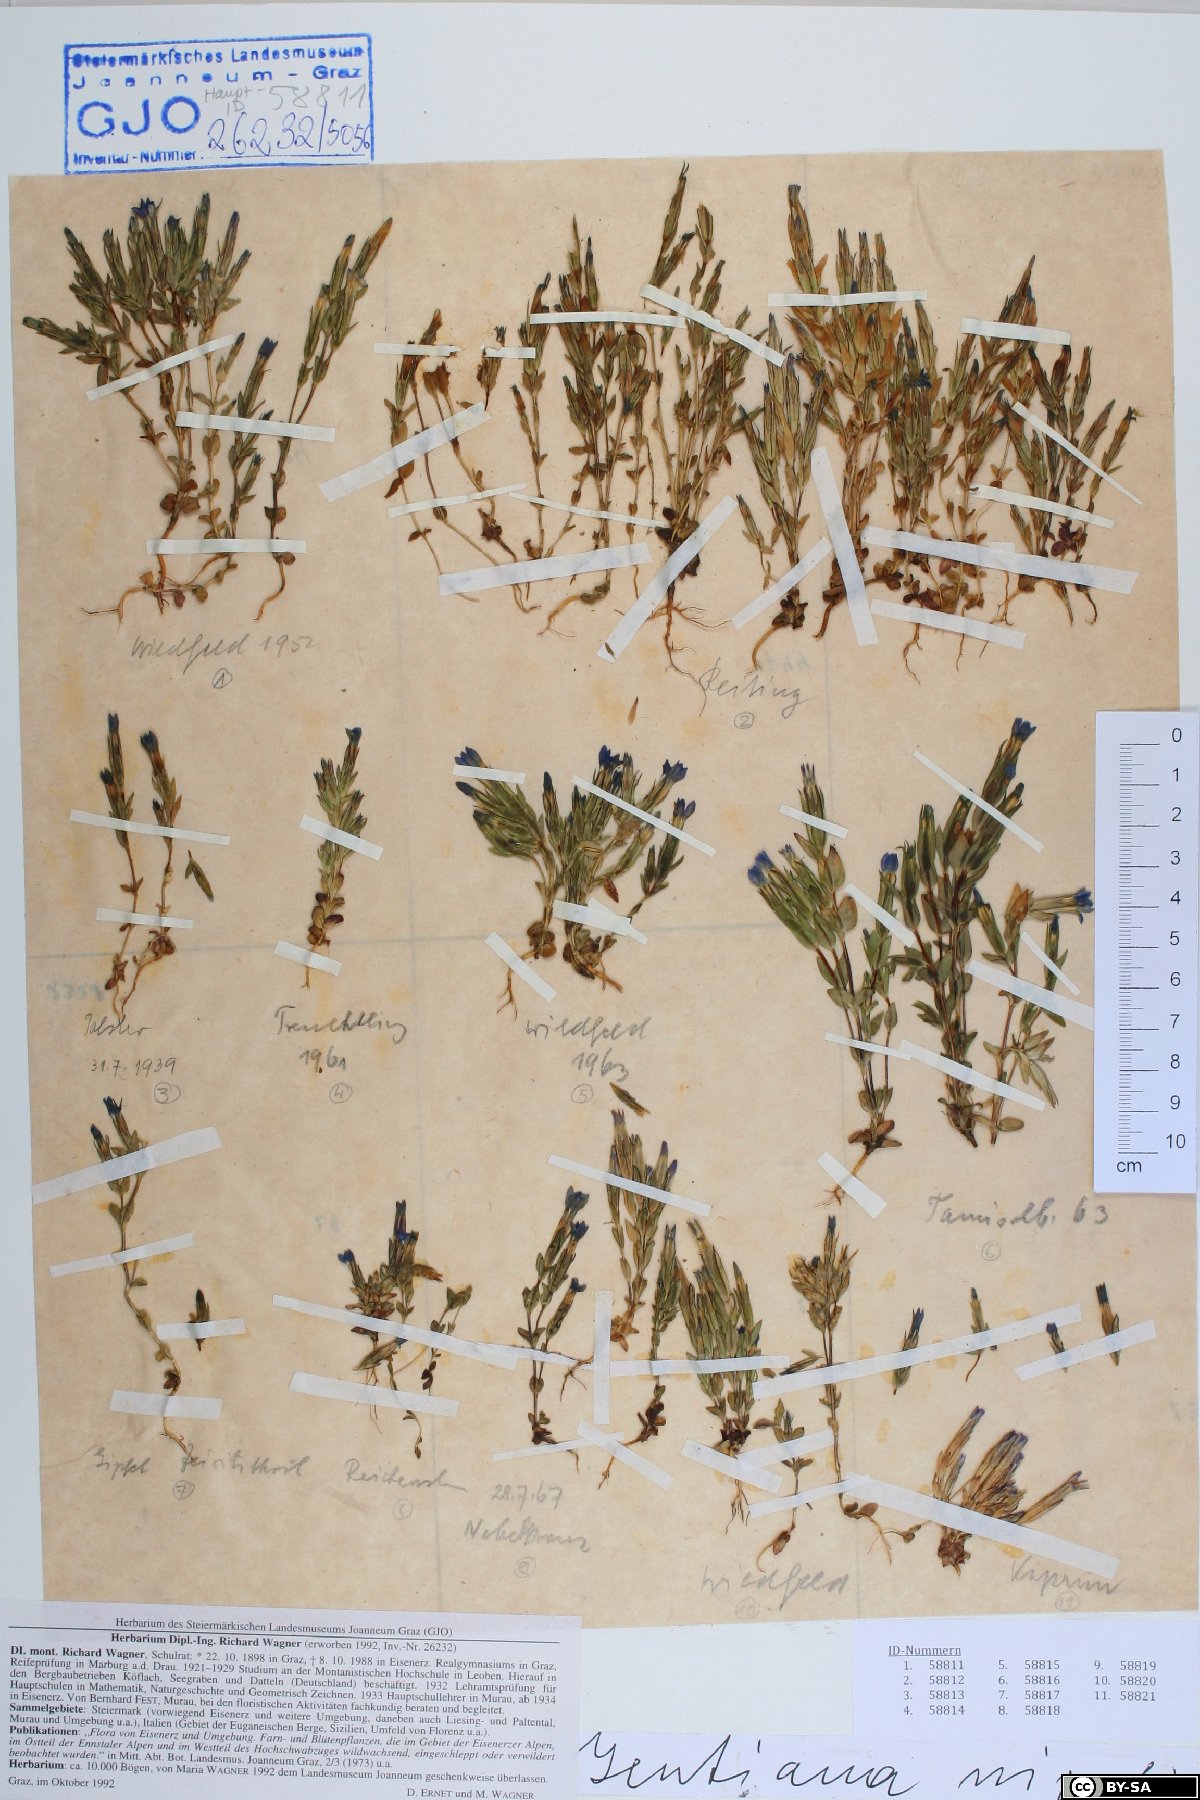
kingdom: Plantae
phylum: Tracheophyta
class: Magnoliopsida
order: Gentianales
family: Gentianaceae
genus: Gentiana
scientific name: Gentiana nivalis
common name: Alpine gentian
